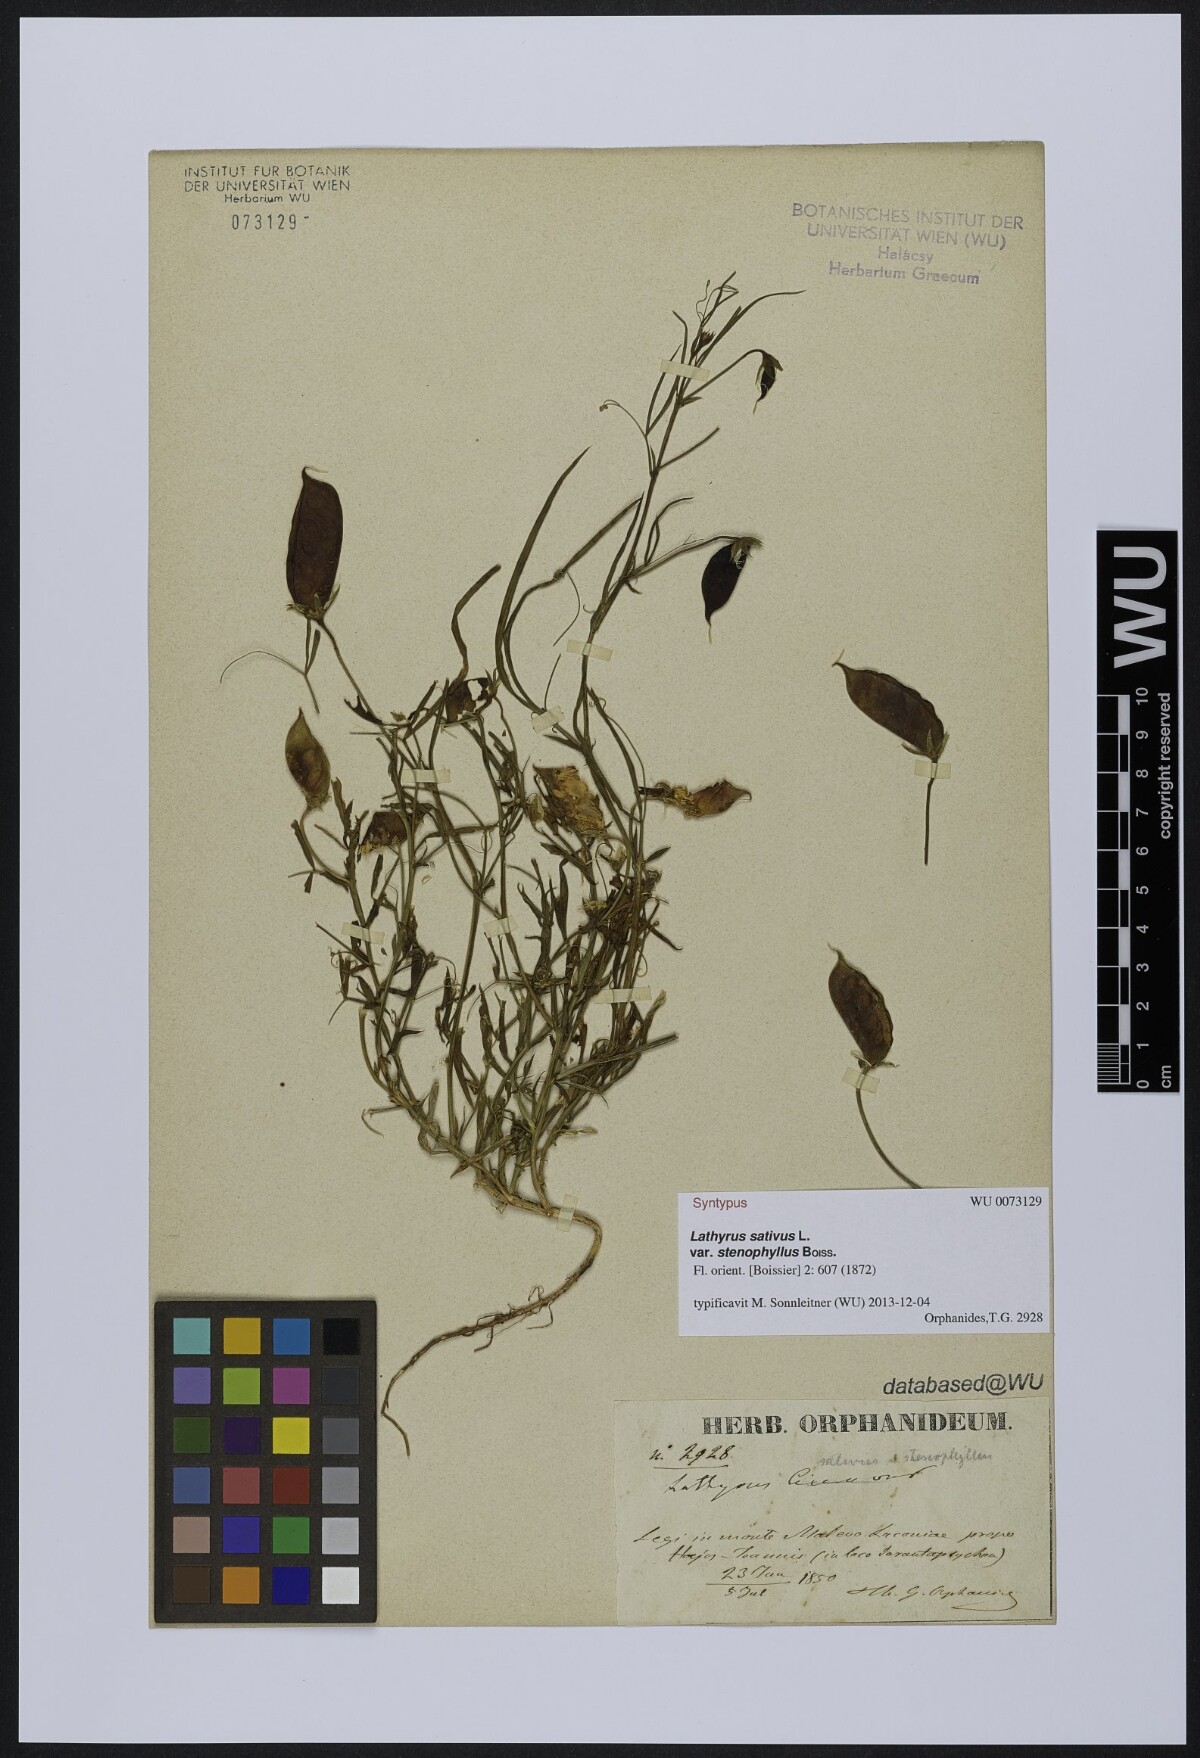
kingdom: Plantae
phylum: Tracheophyta
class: Magnoliopsida
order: Fabales
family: Fabaceae
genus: Lathyrus
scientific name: Lathyrus sativus
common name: Indian pea
